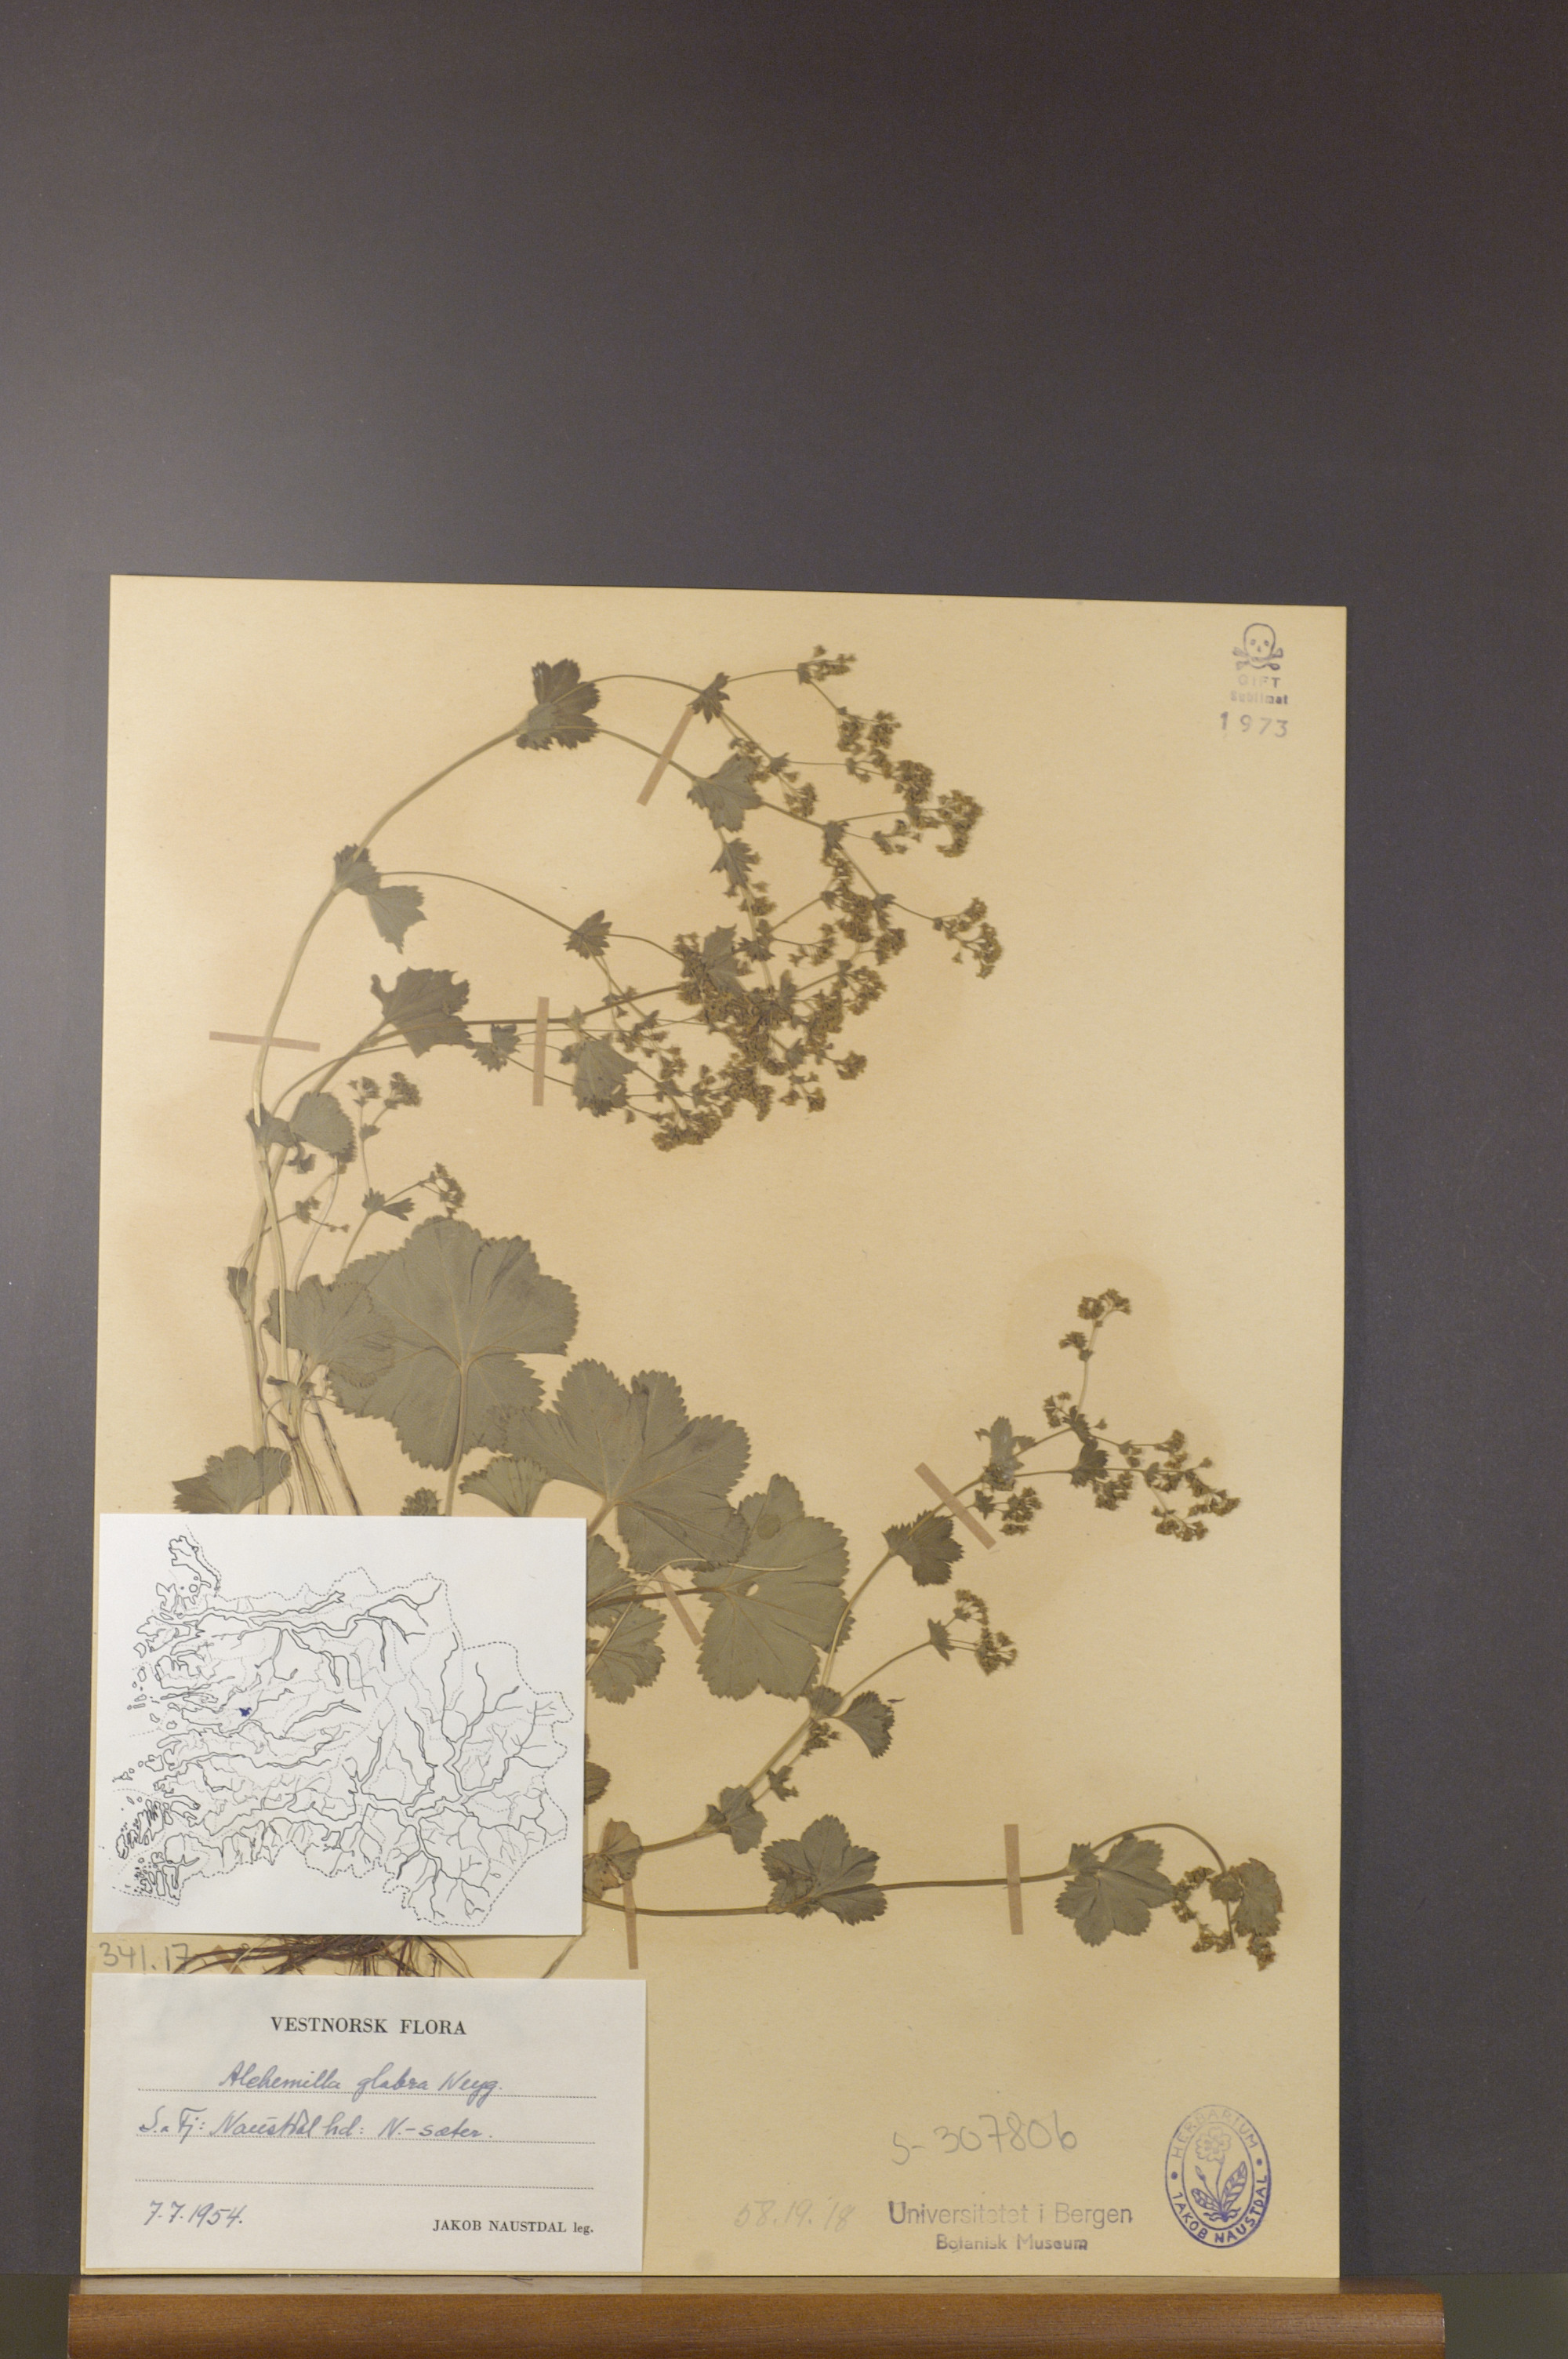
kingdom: Plantae
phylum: Tracheophyta
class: Magnoliopsida
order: Rosales
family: Rosaceae
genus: Alchemilla
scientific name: Alchemilla glabra
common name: Smooth lady's-mantle
